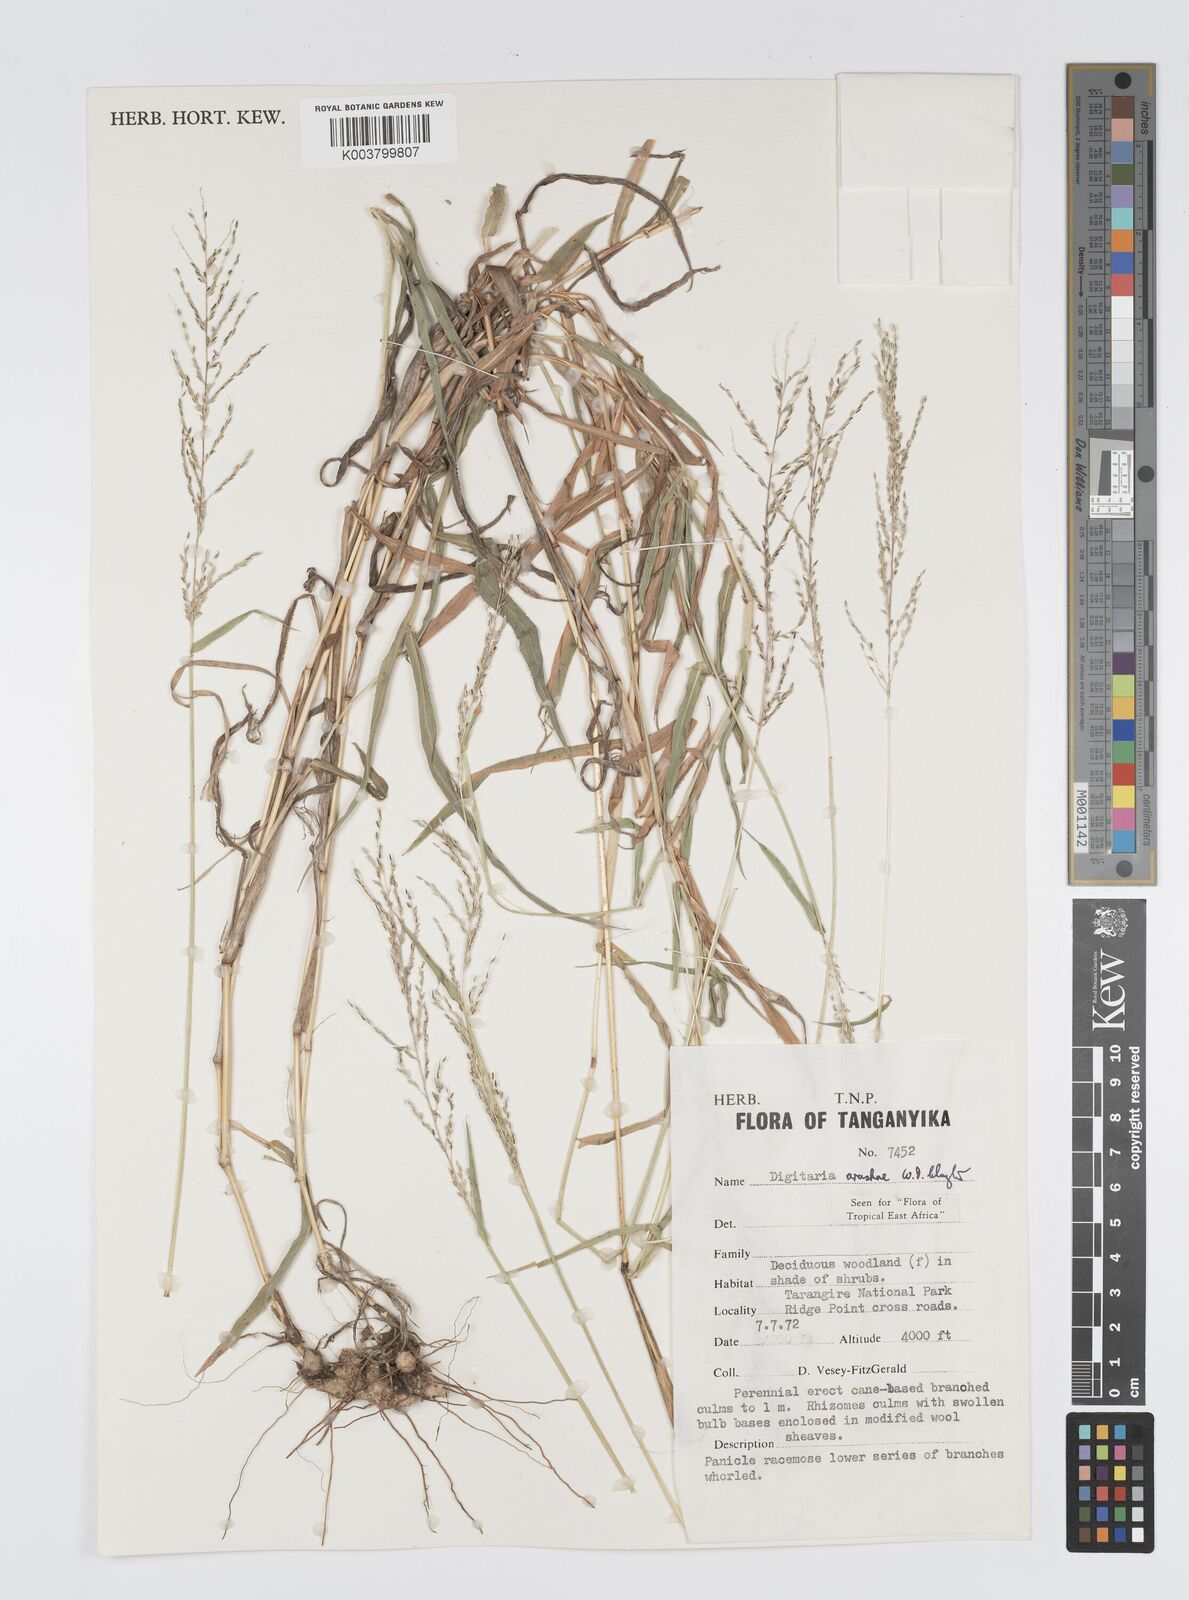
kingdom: Plantae
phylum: Tracheophyta
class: Liliopsida
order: Poales
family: Poaceae
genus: Digitaria
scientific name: Digitaria arushae
